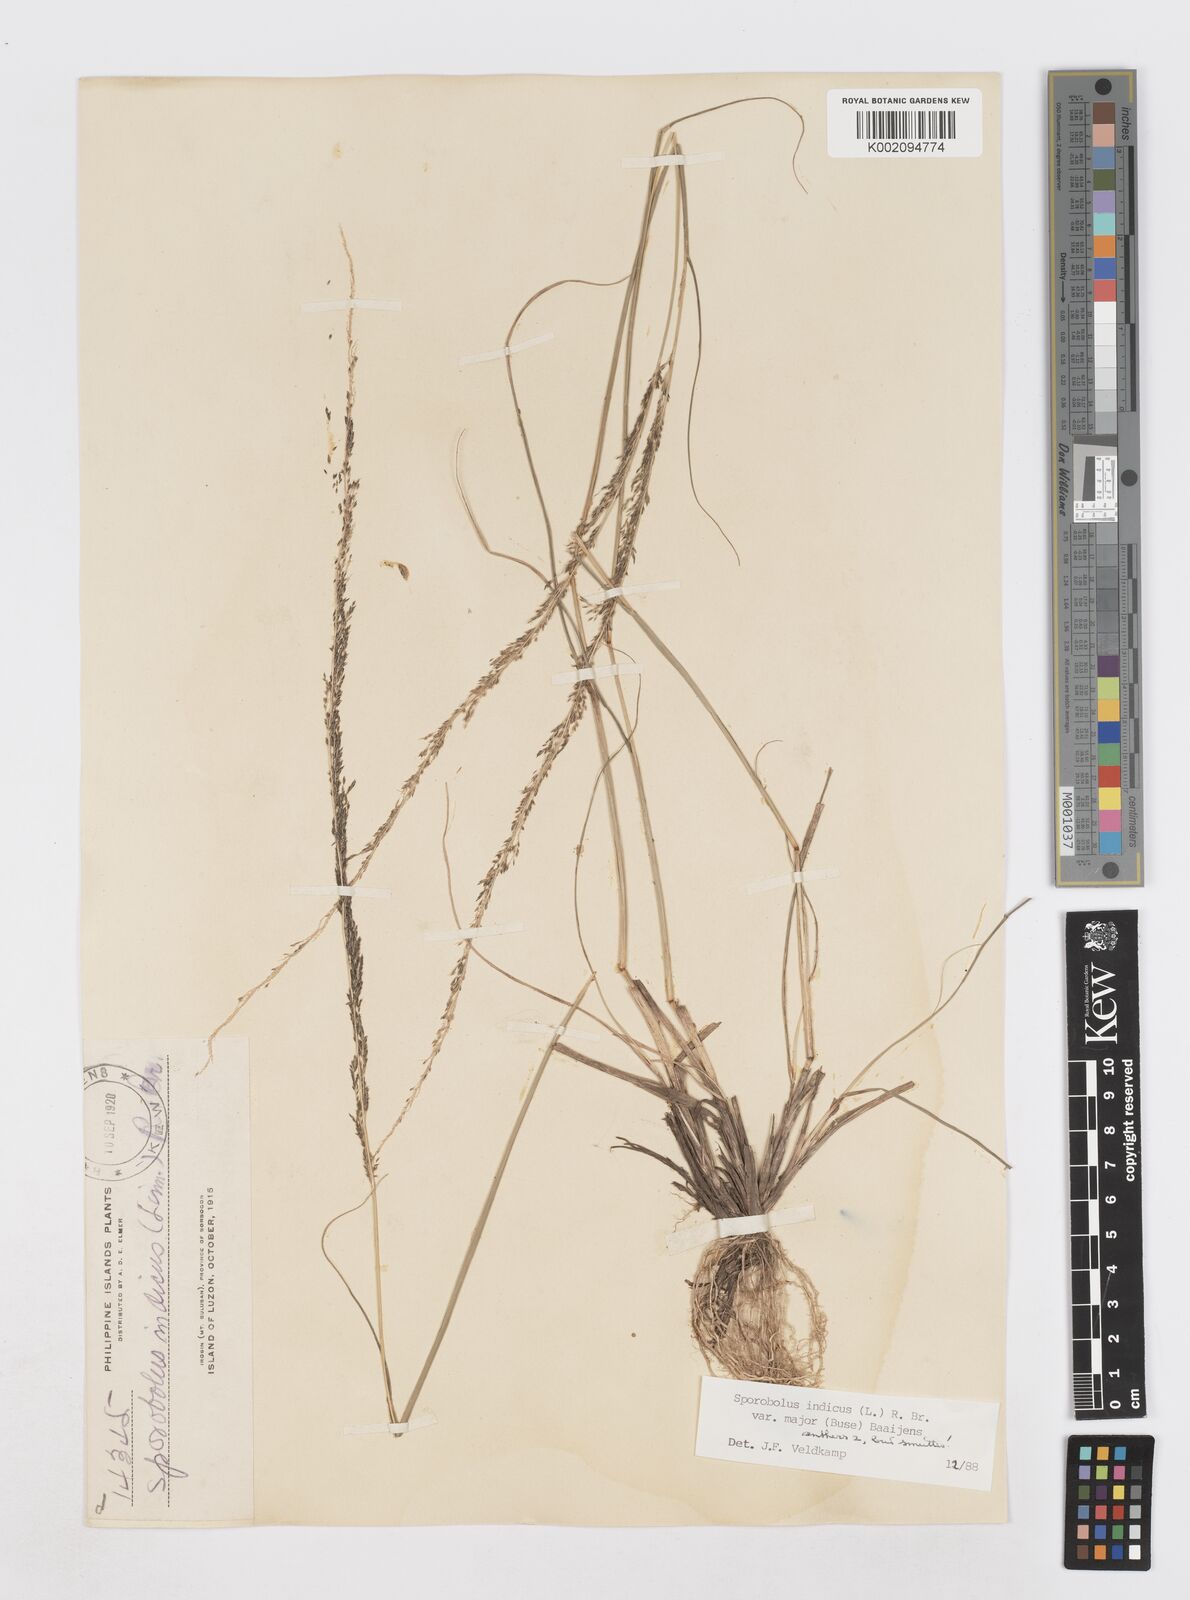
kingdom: Plantae
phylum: Tracheophyta
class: Liliopsida
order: Poales
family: Poaceae
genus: Sporobolus
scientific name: Sporobolus fertilis
